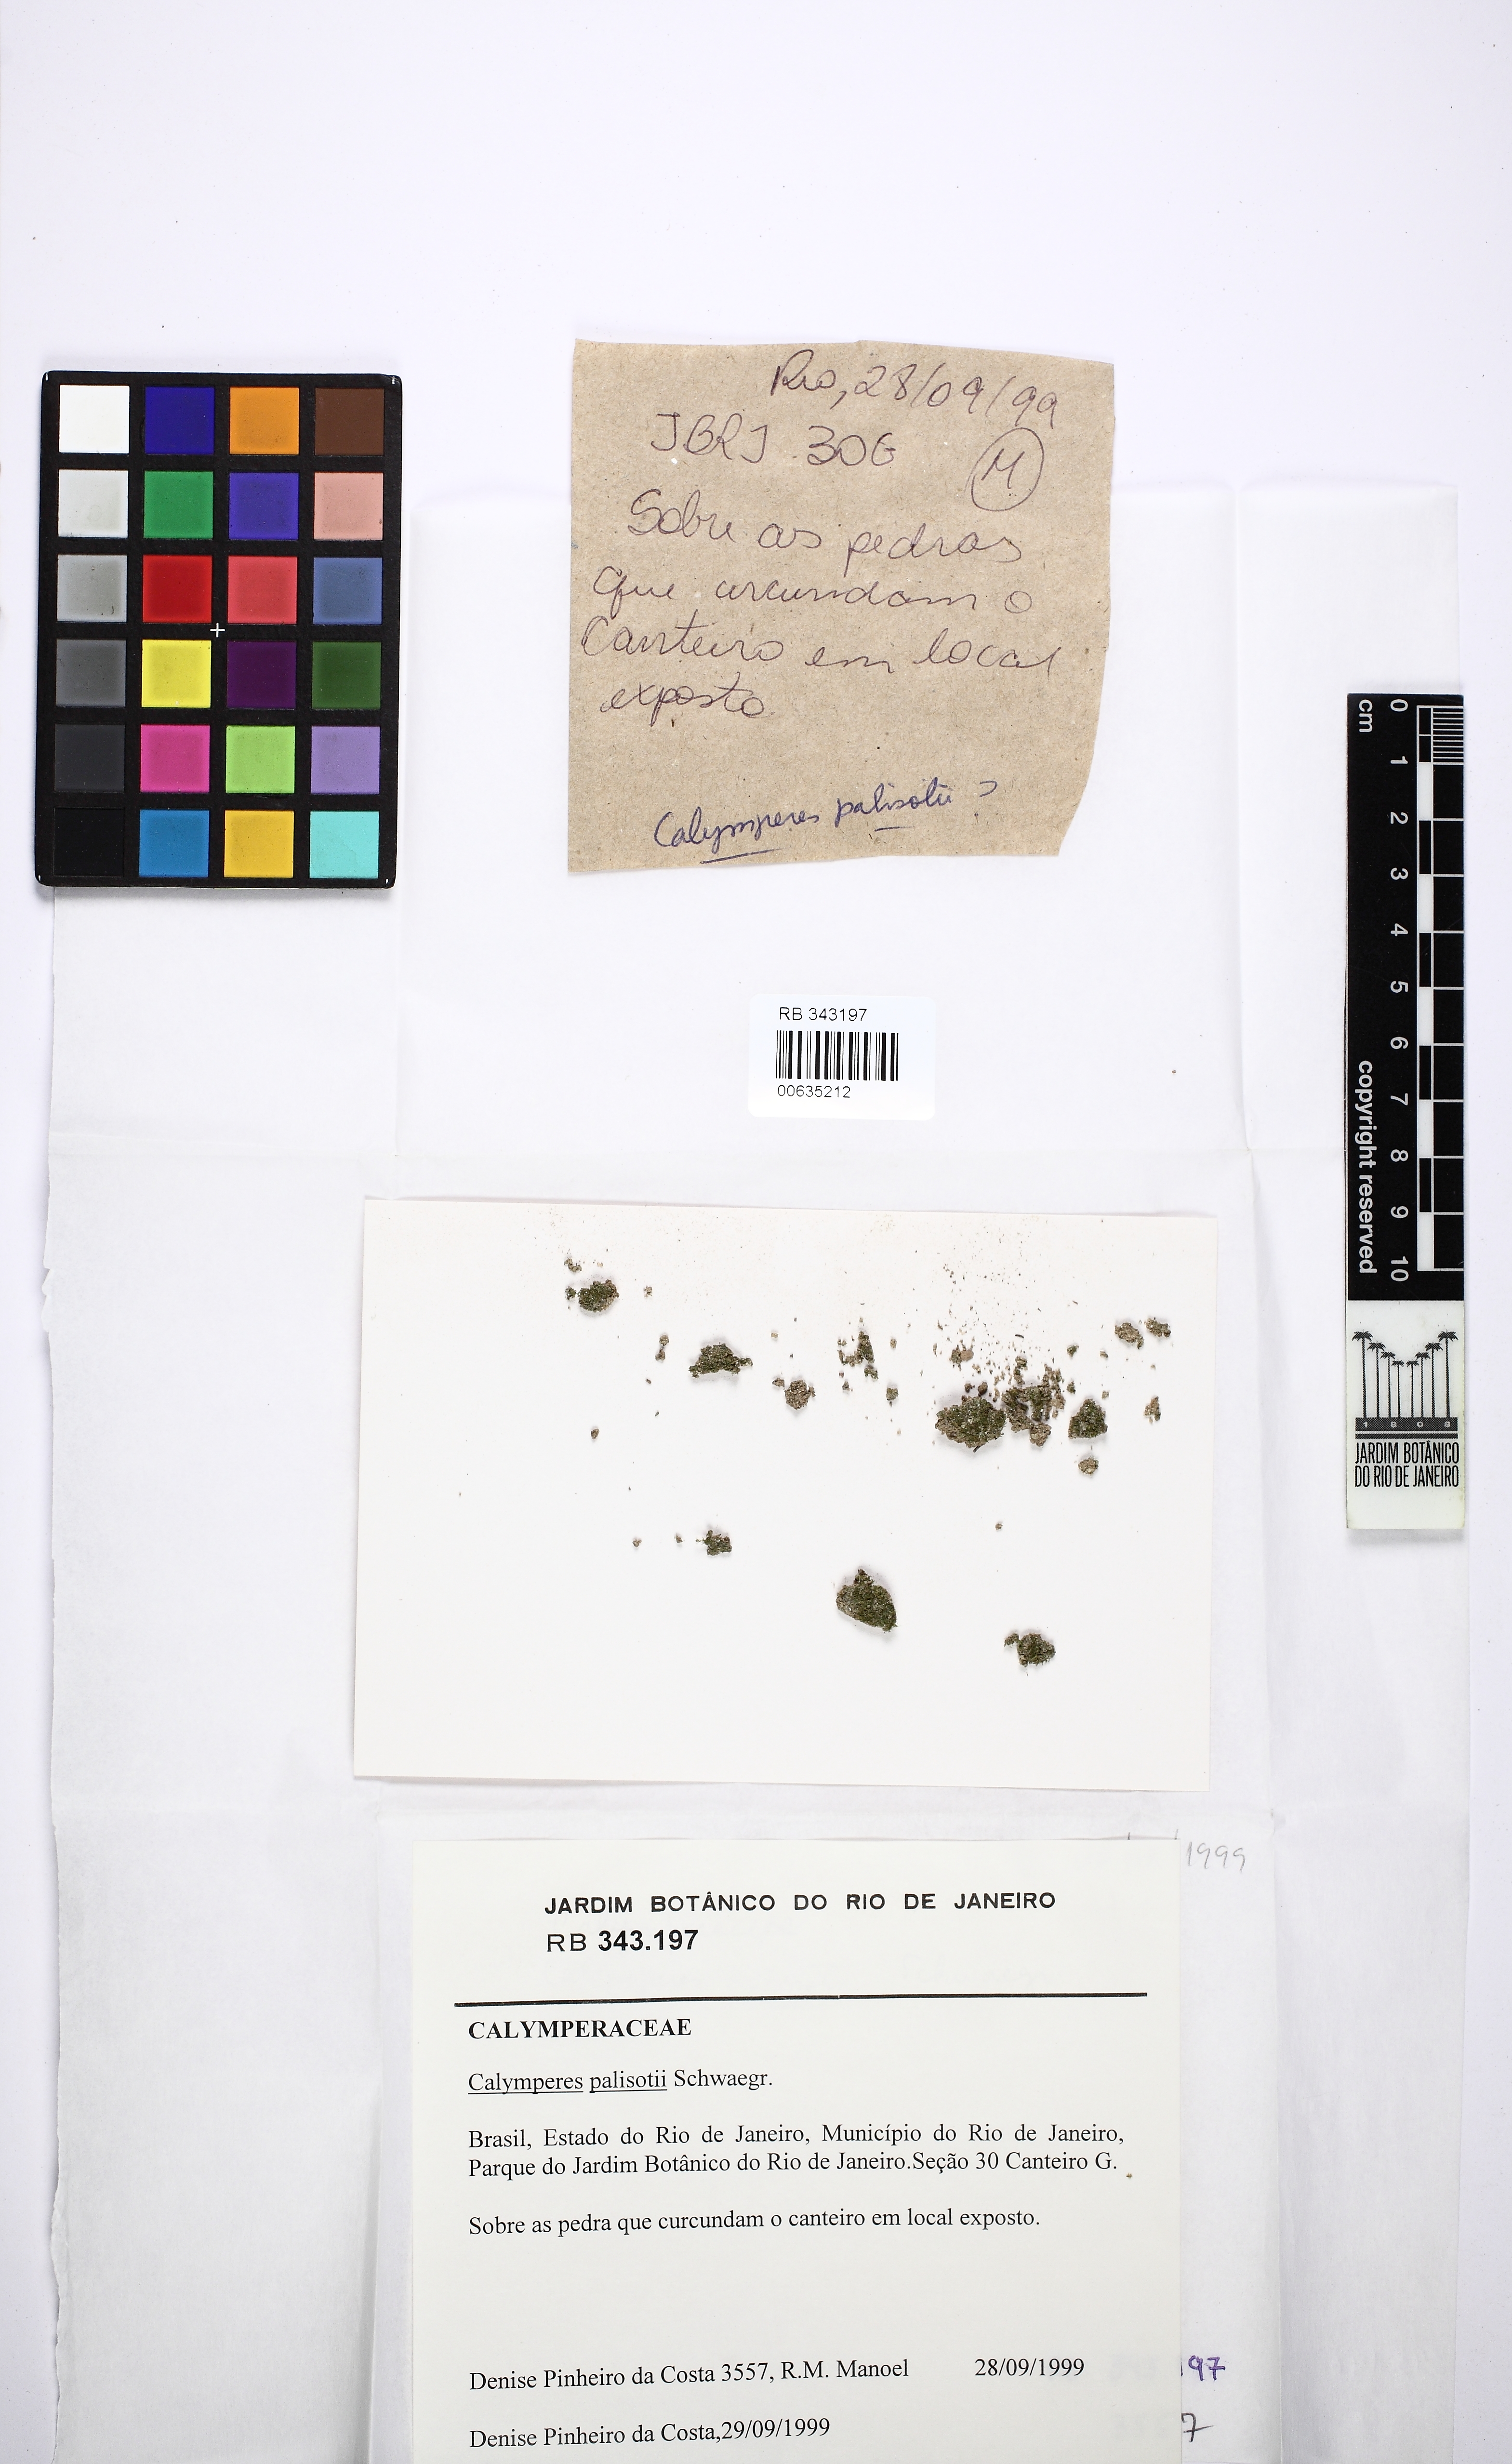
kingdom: Plantae
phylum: Bryophyta
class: Bryopsida
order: Dicranales
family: Calymperaceae
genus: Calymperes
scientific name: Calymperes palisotii
